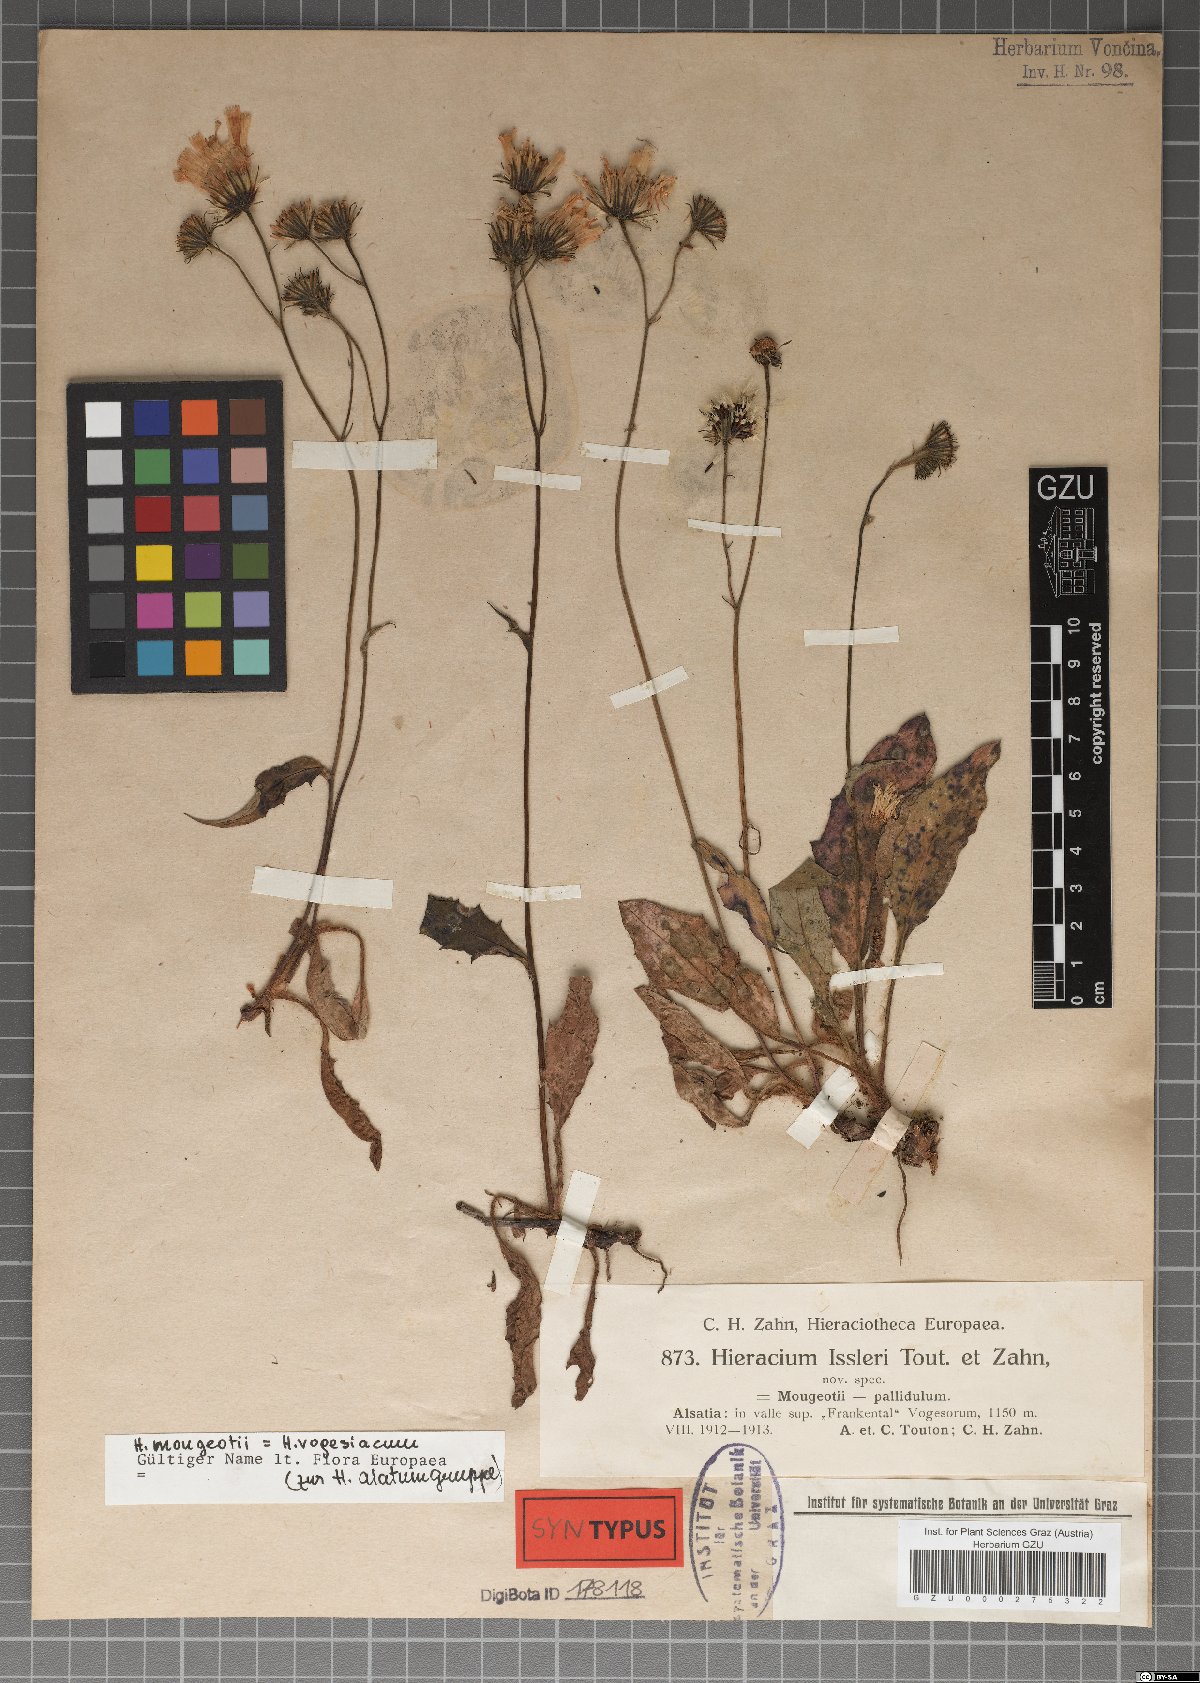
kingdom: Plantae
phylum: Tracheophyta
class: Magnoliopsida
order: Asterales
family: Asteraceae
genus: Hieracium
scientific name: Hieracium juranum
